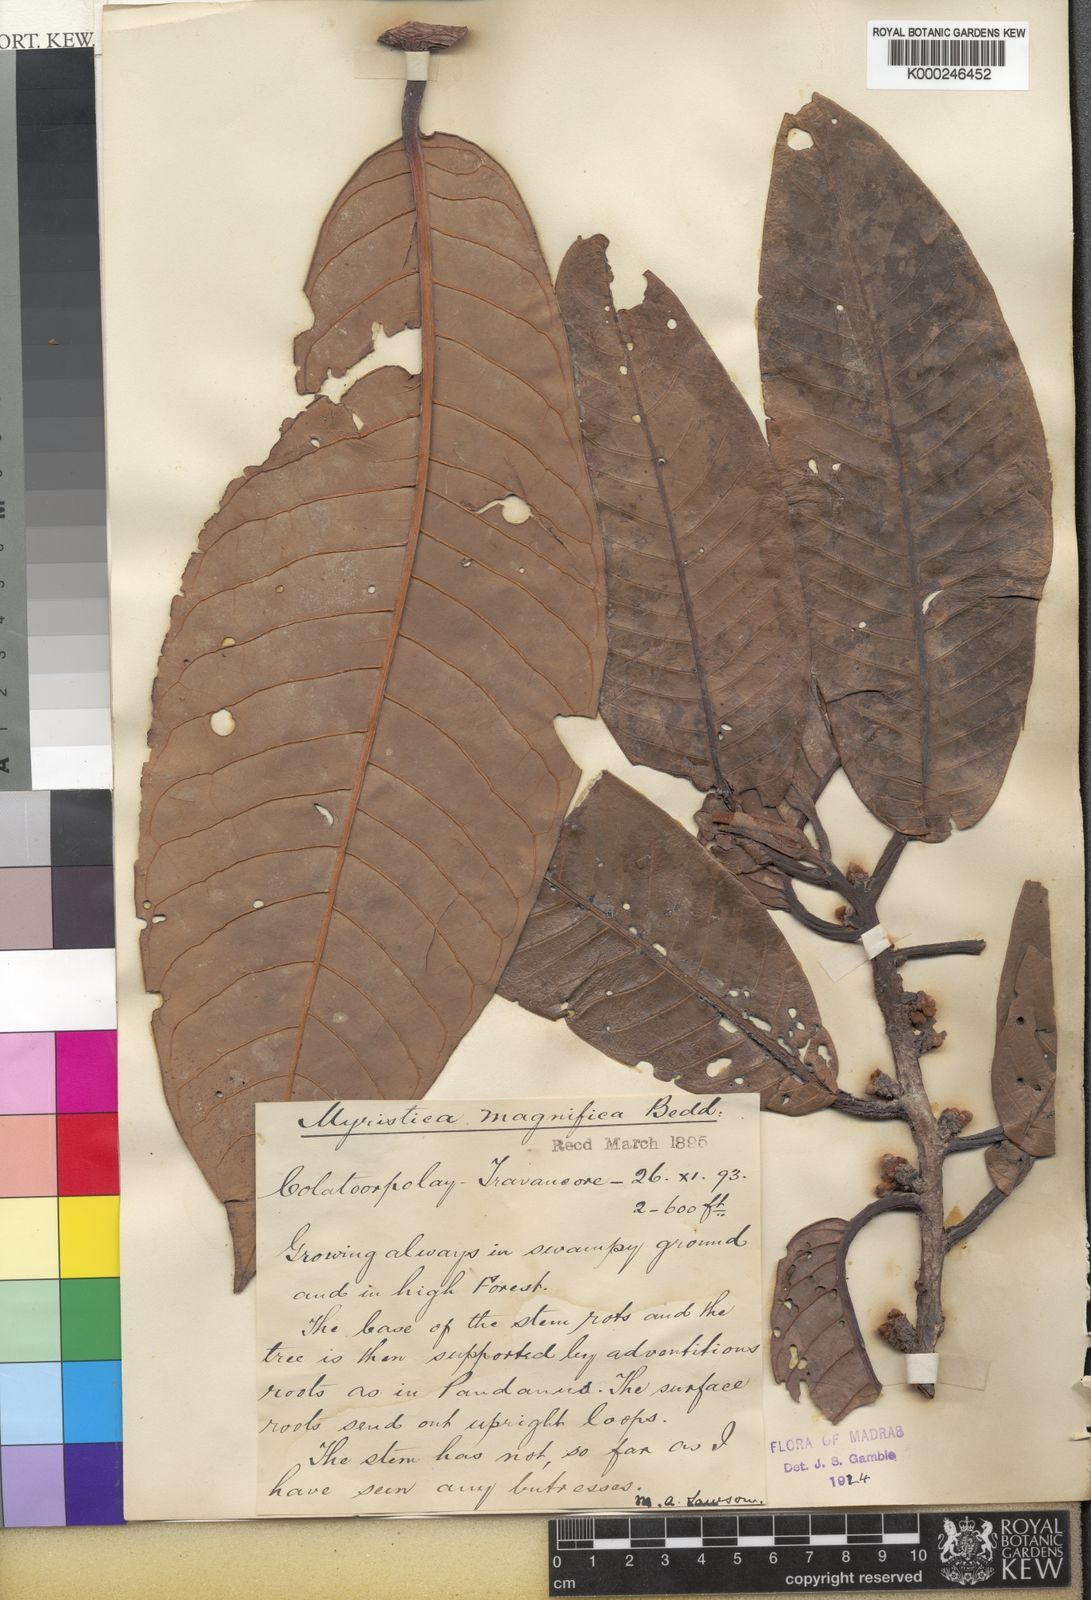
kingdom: Plantae
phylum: Tracheophyta
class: Magnoliopsida
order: Magnoliales
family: Myristicaceae
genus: Myristica
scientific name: Myristica magnifica
